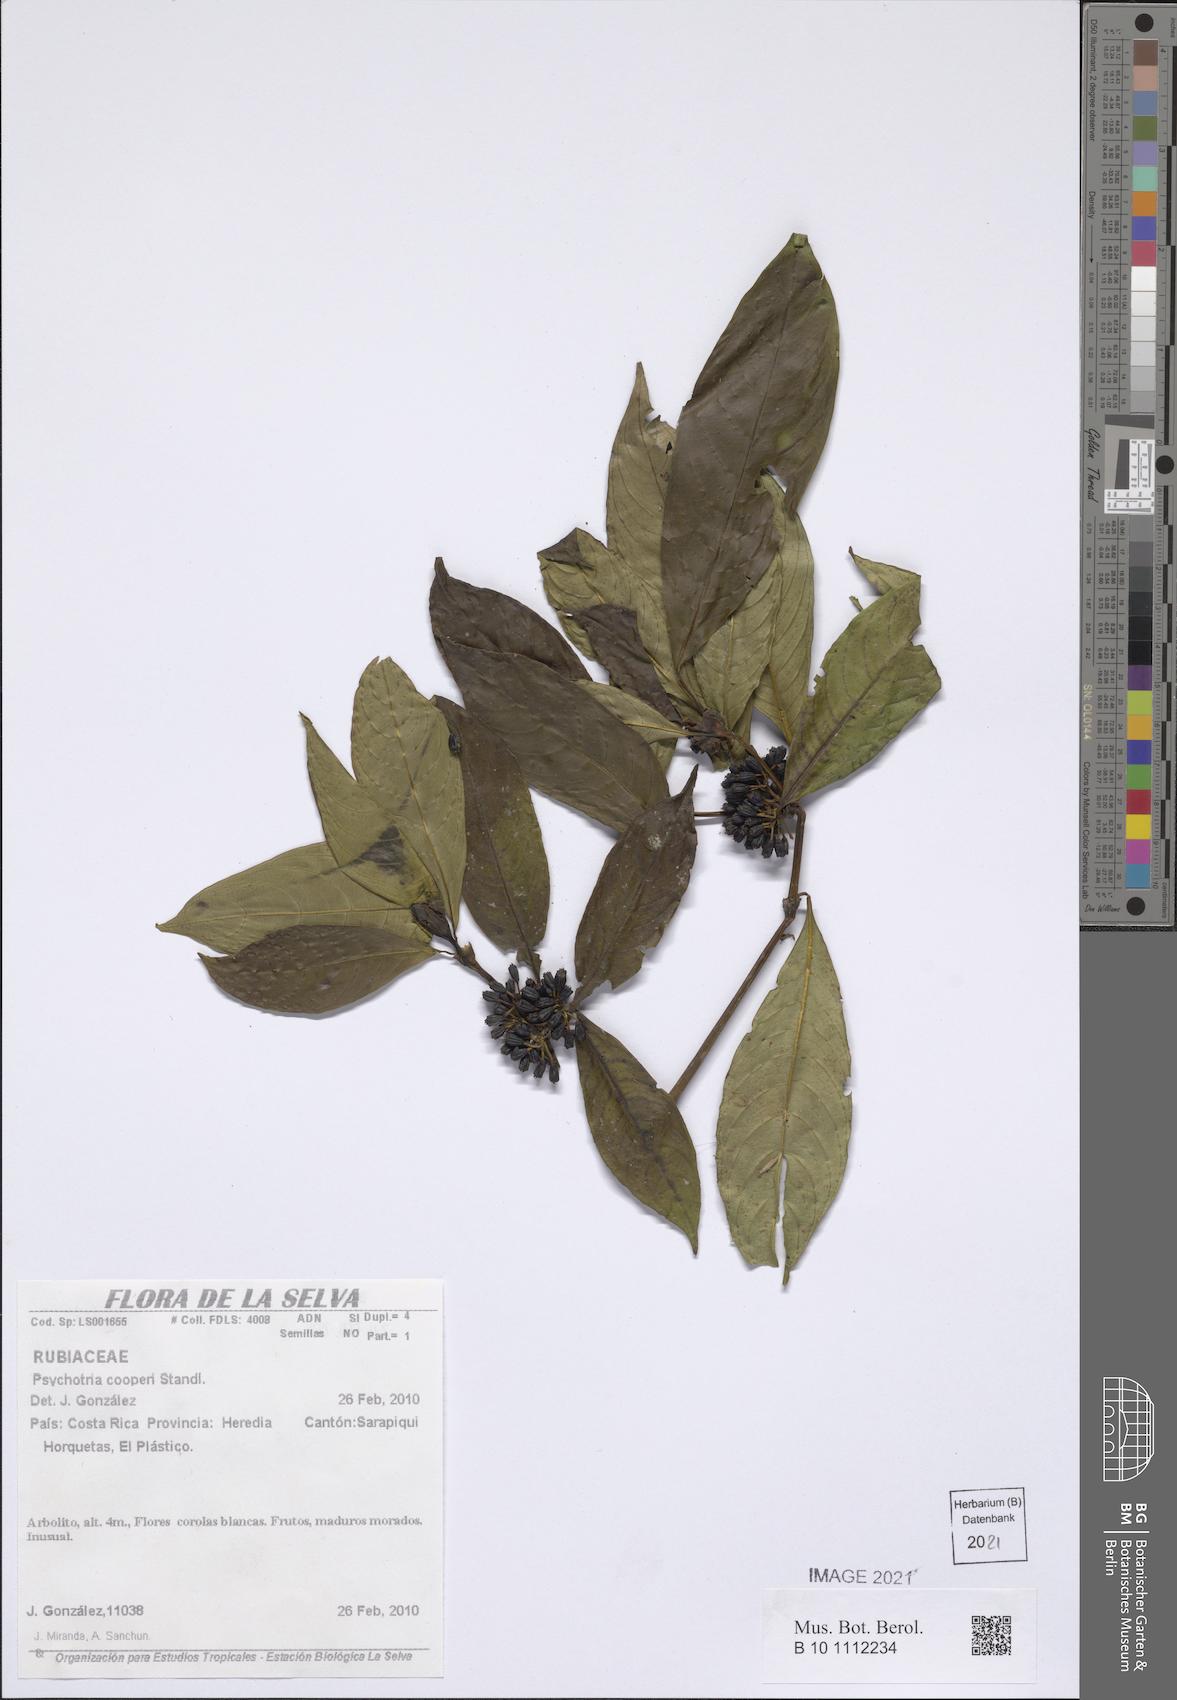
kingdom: Plantae
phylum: Tracheophyta
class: Magnoliopsida
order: Gentianales
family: Rubiaceae
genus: Palicourea
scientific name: Palicourea pseudaxillaris
